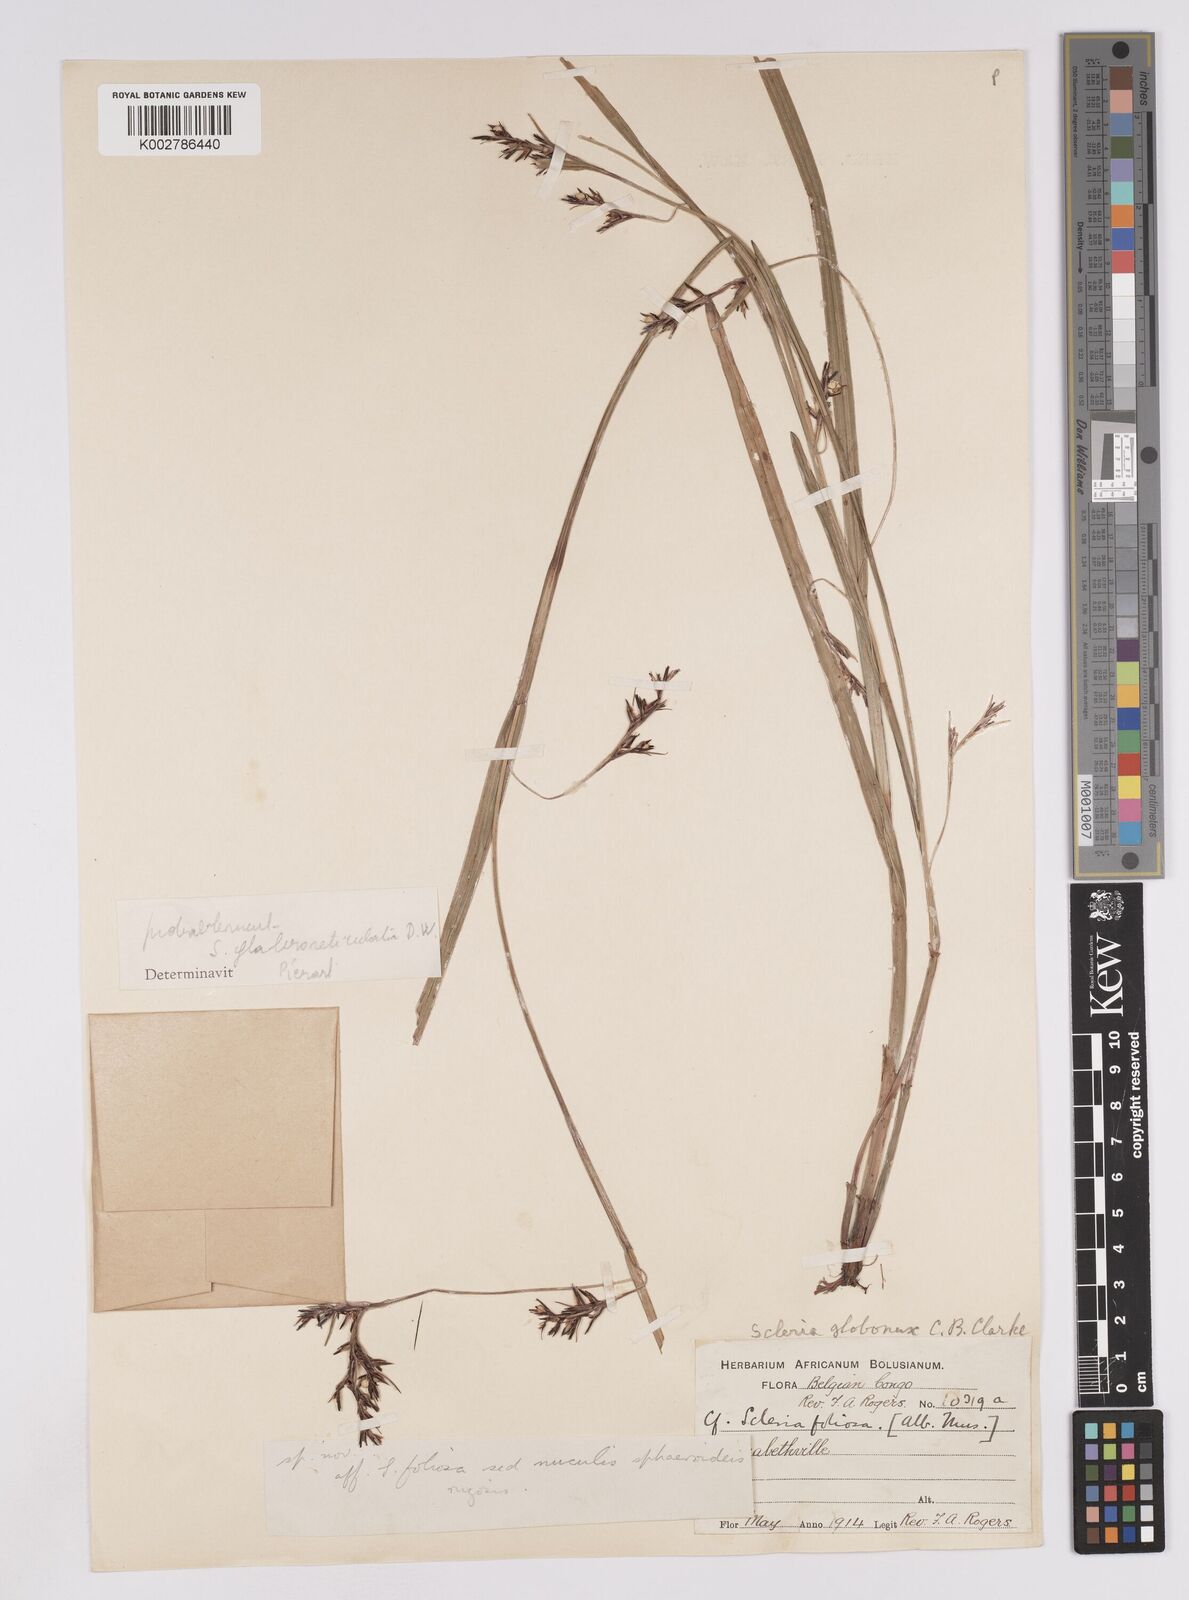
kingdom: Plantae
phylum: Tracheophyta
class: Liliopsida
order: Poales
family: Cyperaceae
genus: Scleria
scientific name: Scleria globonux
